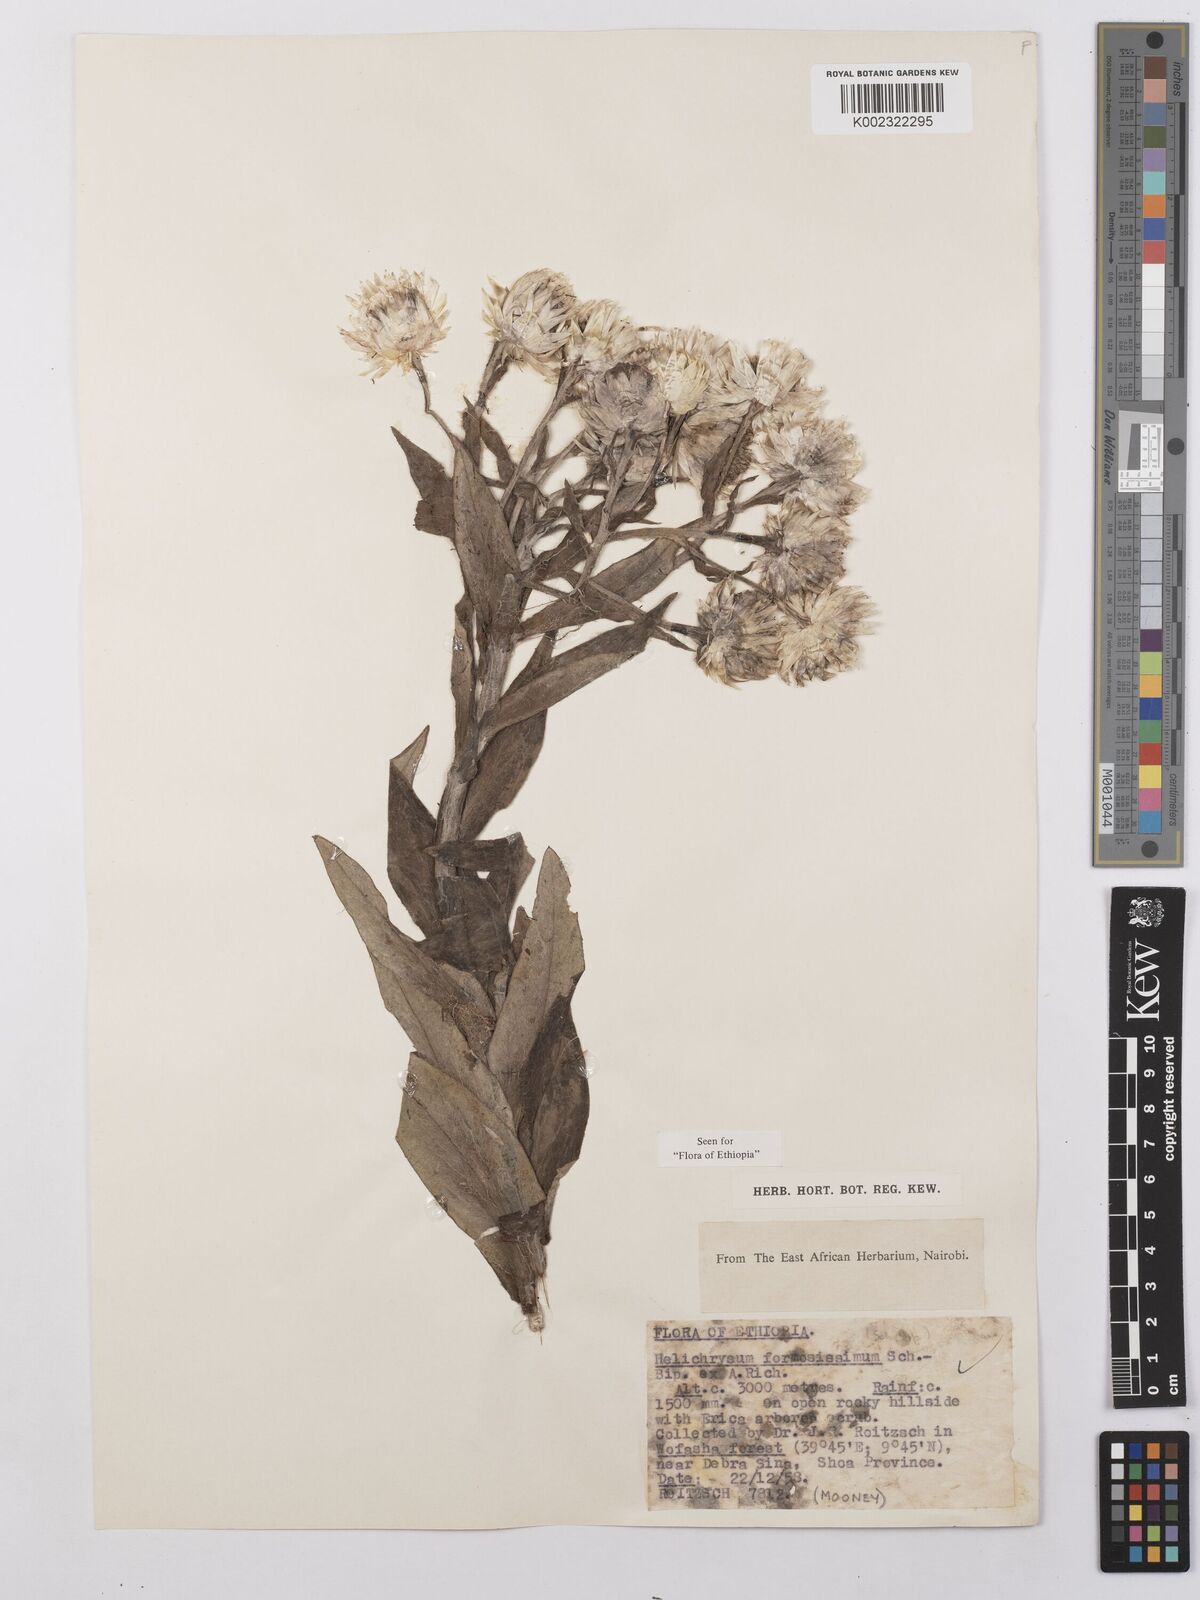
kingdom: Plantae
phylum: Tracheophyta
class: Magnoliopsida
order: Asterales
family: Asteraceae
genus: Helichrysum
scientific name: Helichrysum formosissimum
